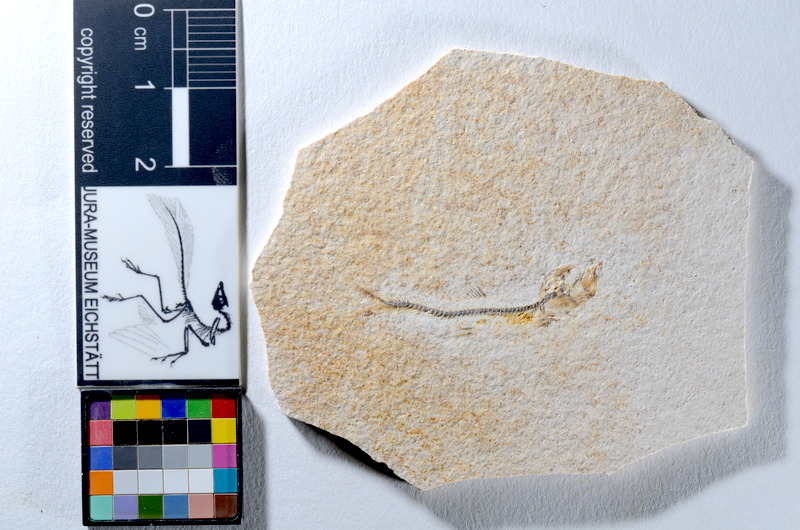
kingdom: Animalia
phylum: Chordata
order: Salmoniformes
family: Orthogonikleithridae
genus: Orthogonikleithrus
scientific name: Orthogonikleithrus hoelli
